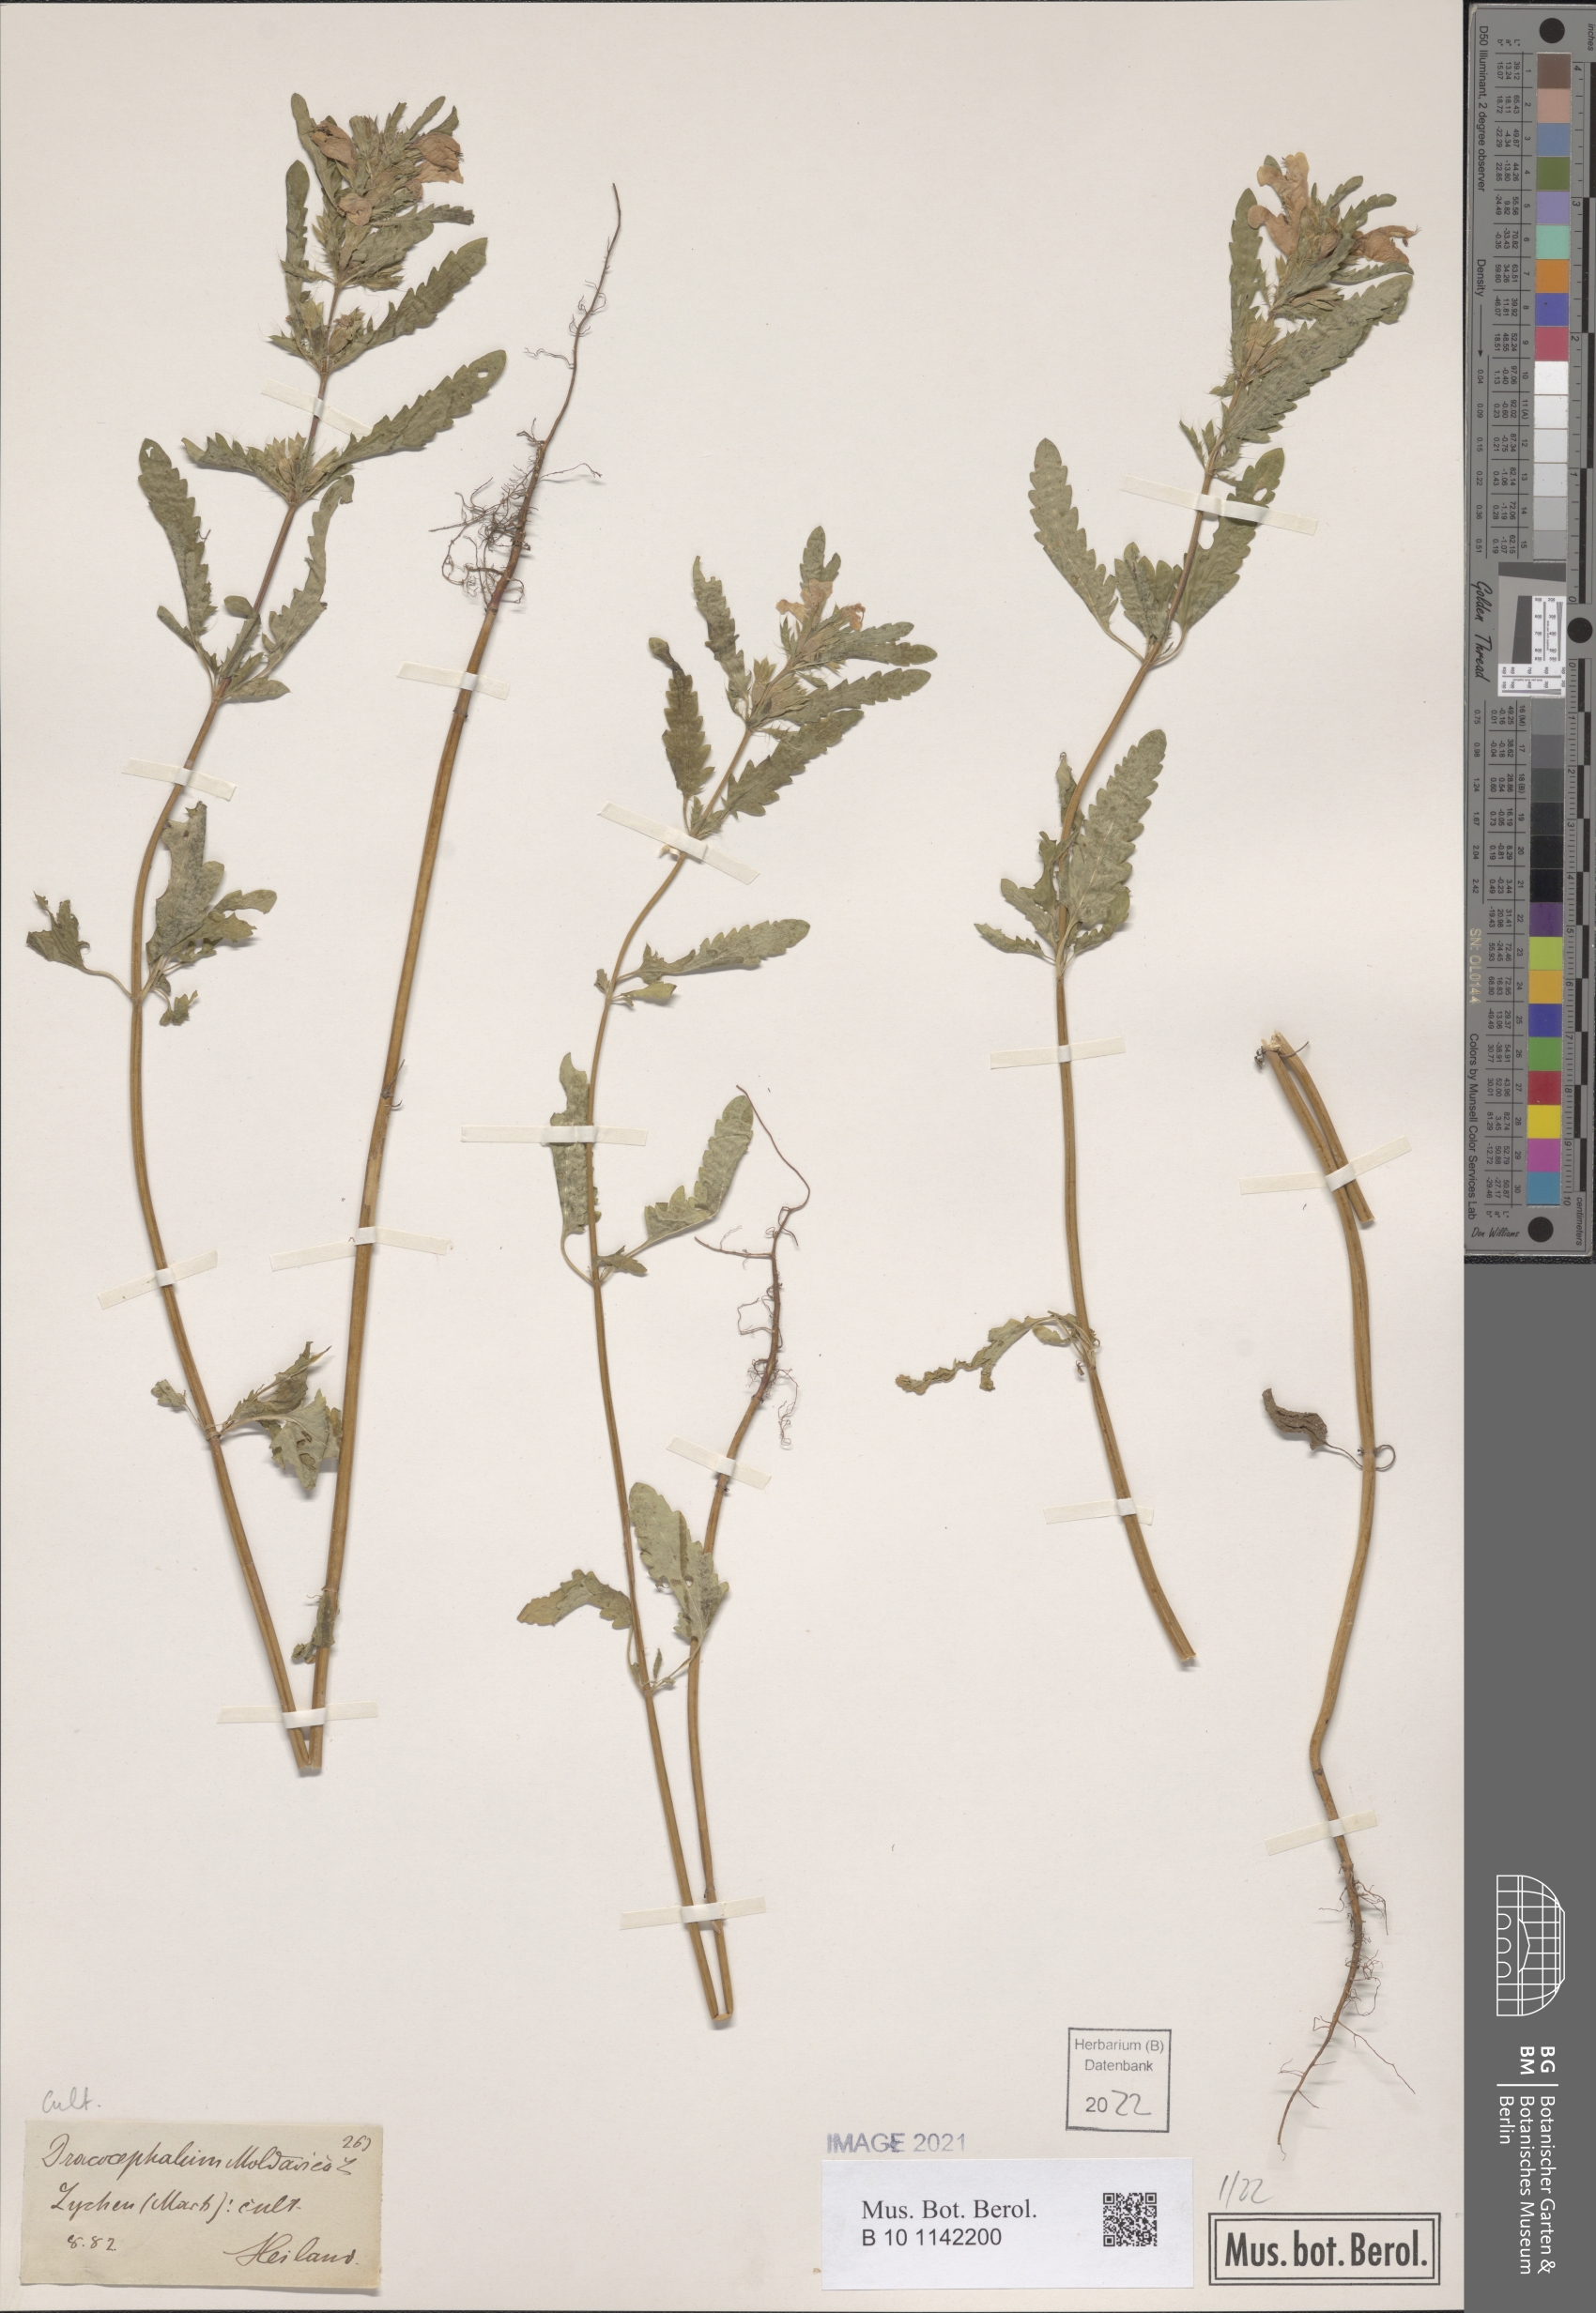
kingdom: Plantae
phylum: Tracheophyta
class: Magnoliopsida
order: Lamiales
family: Lamiaceae
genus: Dracocephalum
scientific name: Dracocephalum moldavica
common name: Moldavian dragonhead
